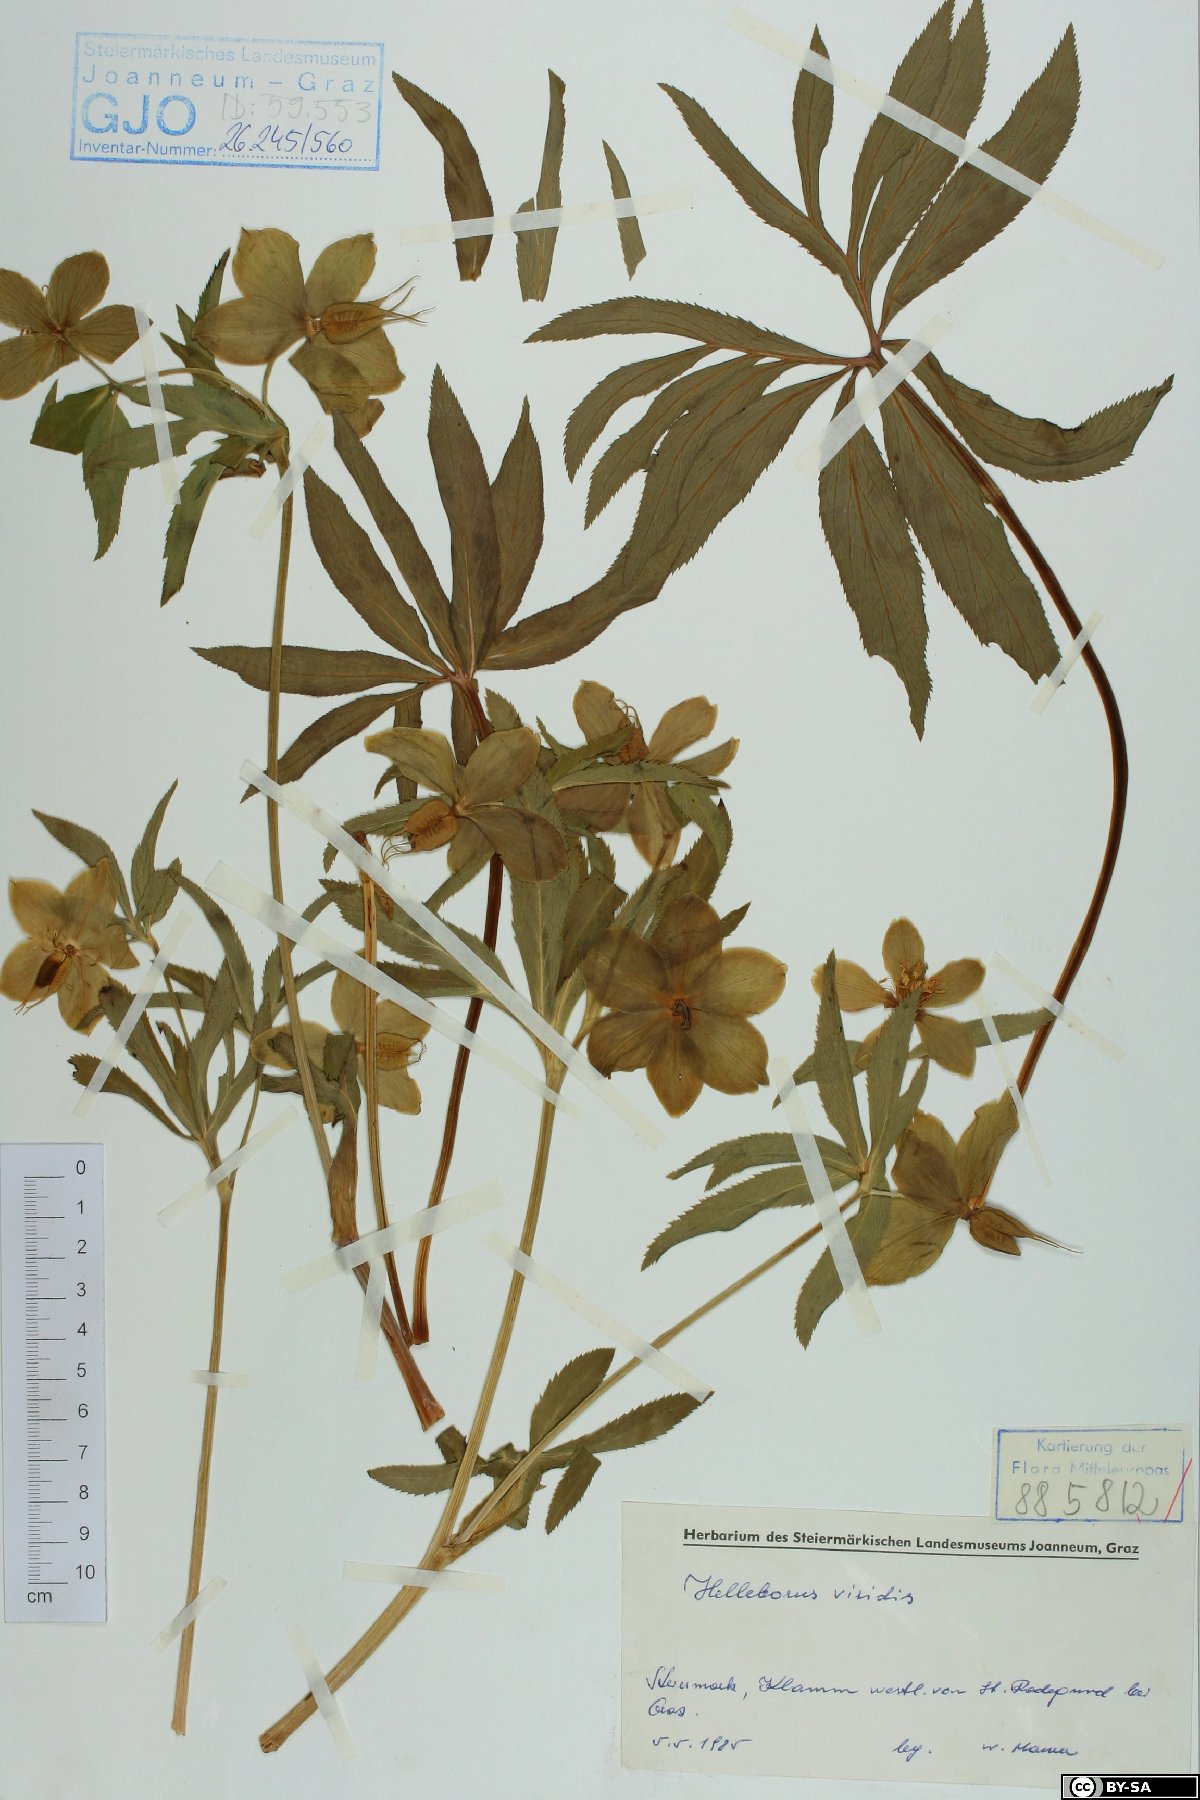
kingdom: Plantae
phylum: Tracheophyta
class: Magnoliopsida
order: Ranunculales
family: Ranunculaceae
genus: Helleborus
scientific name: Helleborus viridis
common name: Green hellebore
